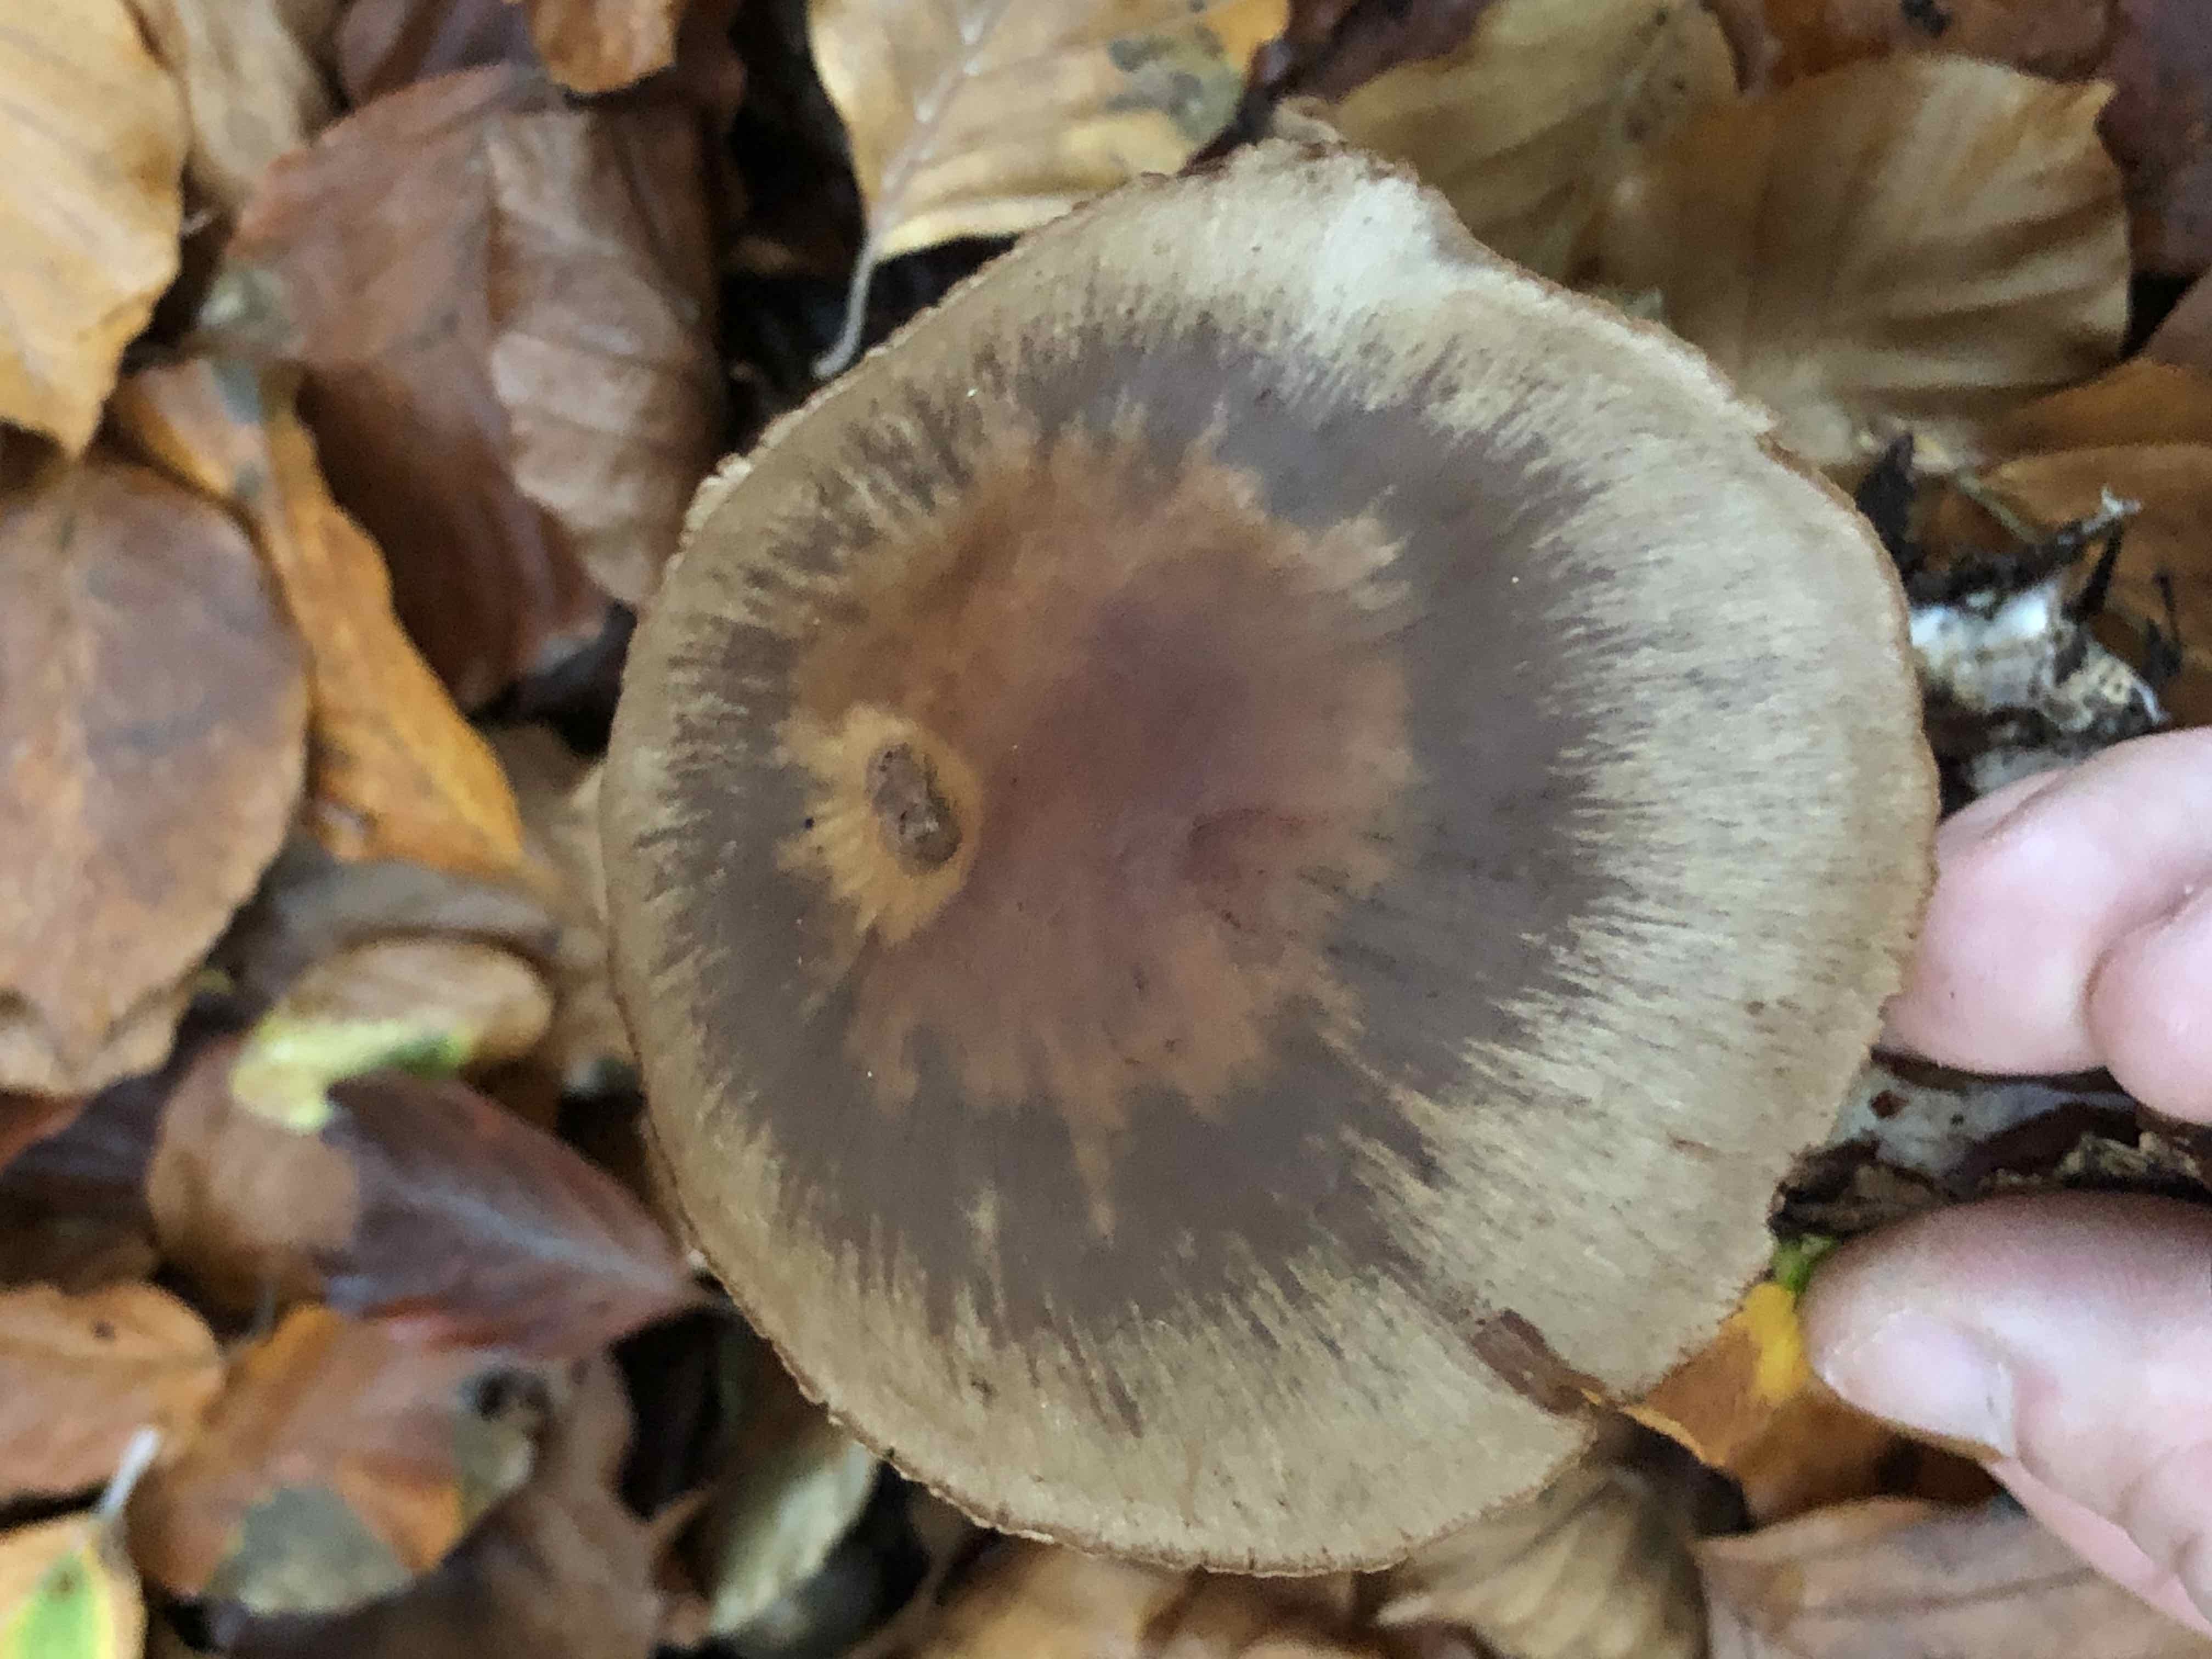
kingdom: Fungi
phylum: Basidiomycota
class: Agaricomycetes
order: Agaricales
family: Cortinariaceae
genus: Cortinarius
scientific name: Cortinarius
